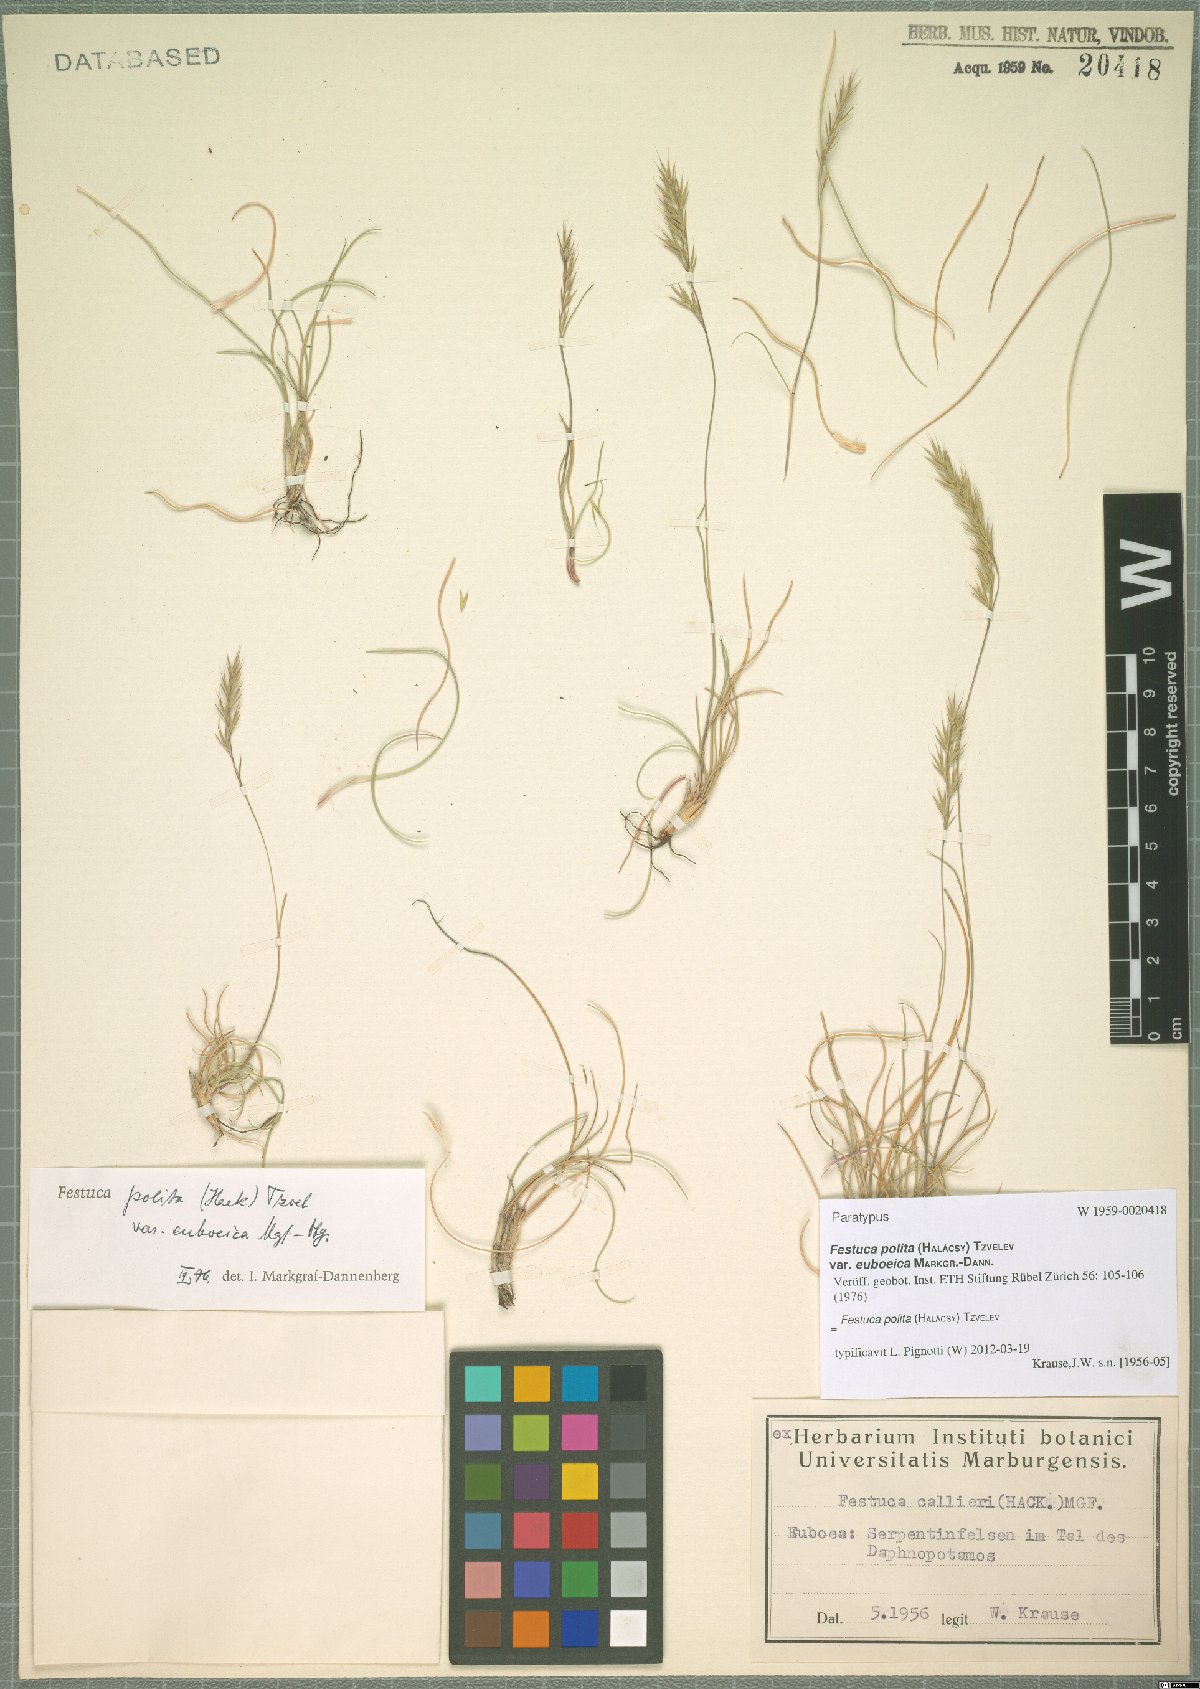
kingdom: Plantae
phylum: Tracheophyta
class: Liliopsida
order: Poales
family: Poaceae
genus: Festuca
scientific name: Festuca polita
